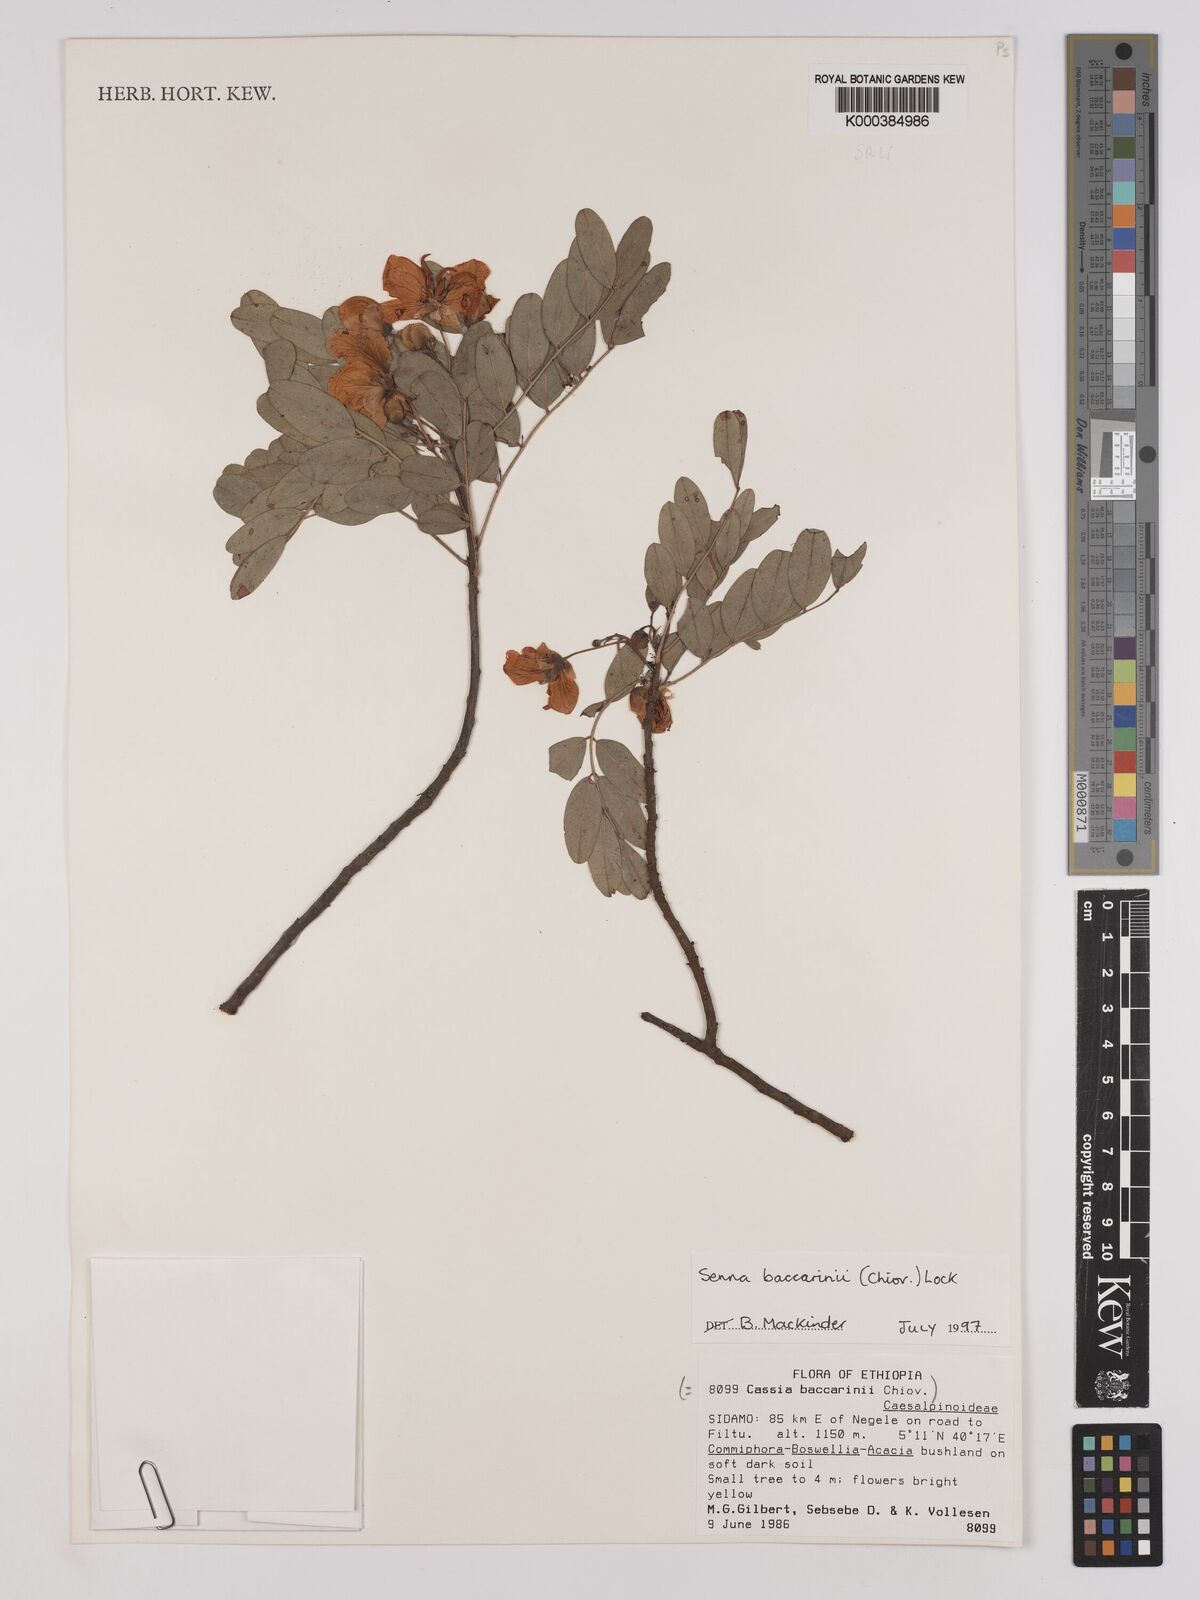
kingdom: Plantae
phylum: Tracheophyta
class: Magnoliopsida
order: Fabales
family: Fabaceae
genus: Senna
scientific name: Senna baccarinii
